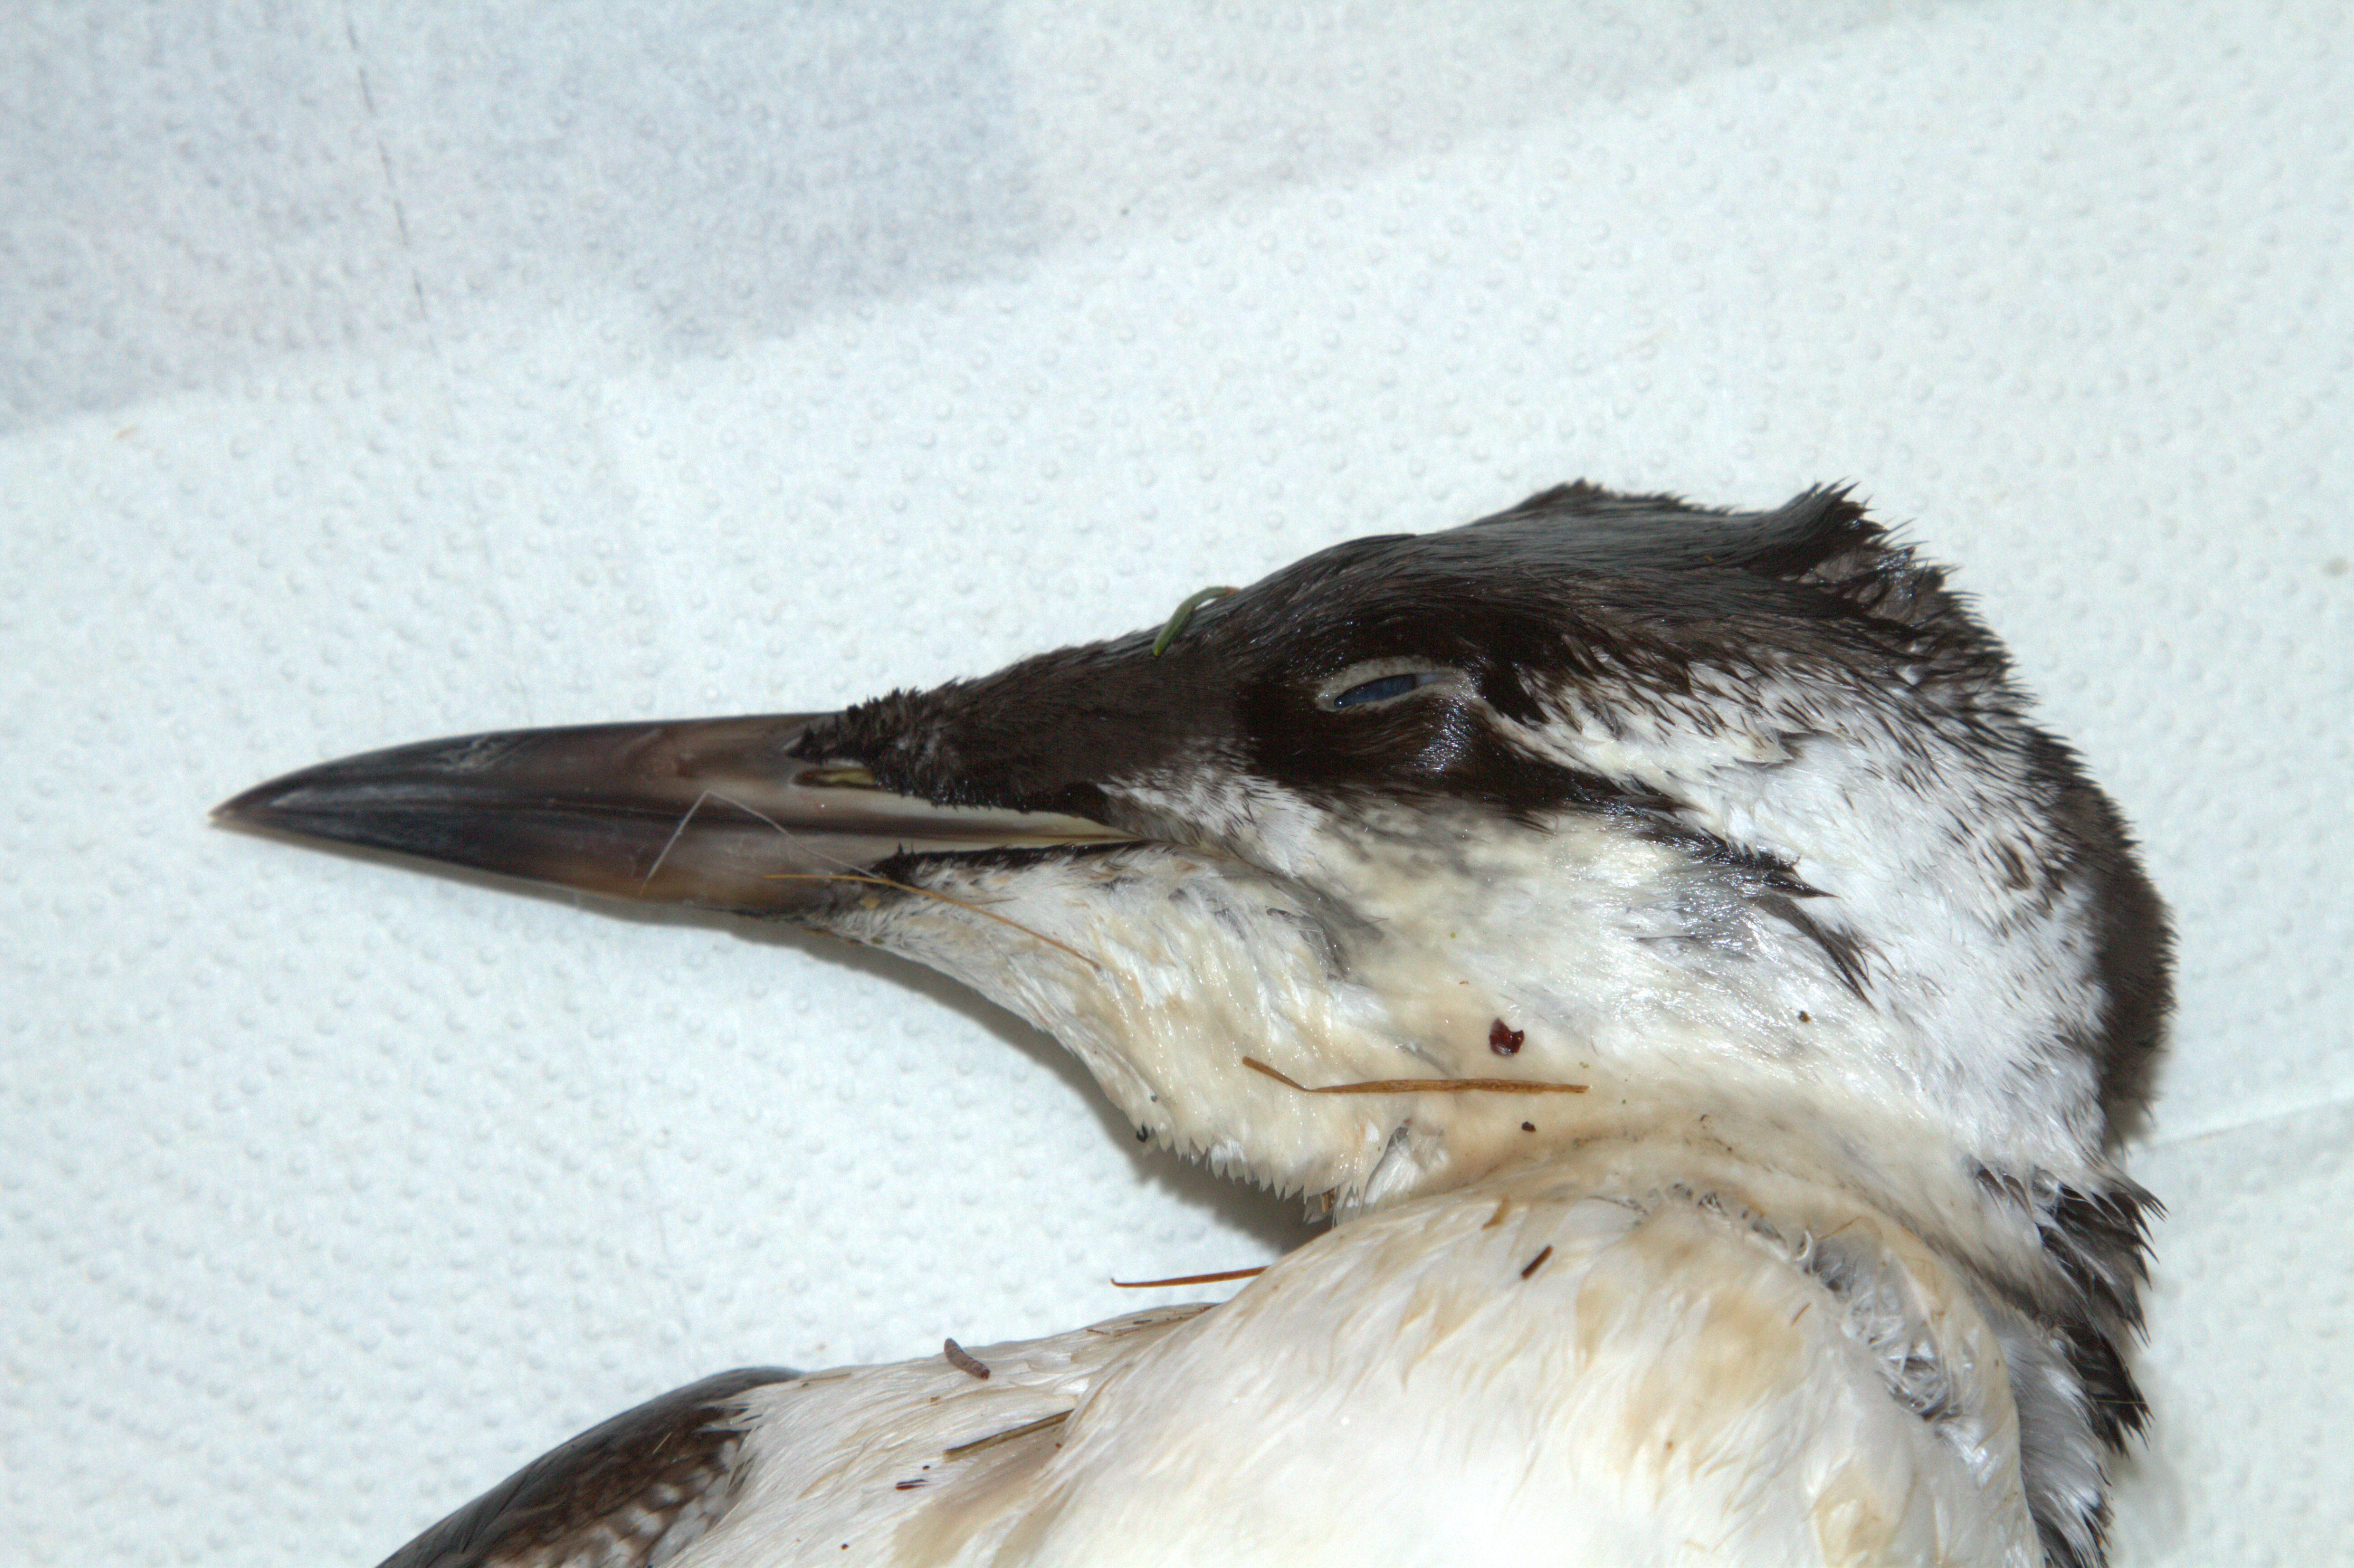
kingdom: Animalia
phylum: Chordata
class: Aves
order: Charadriiformes
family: Alcidae
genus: Uria
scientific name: Uria aalge
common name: Common murre
